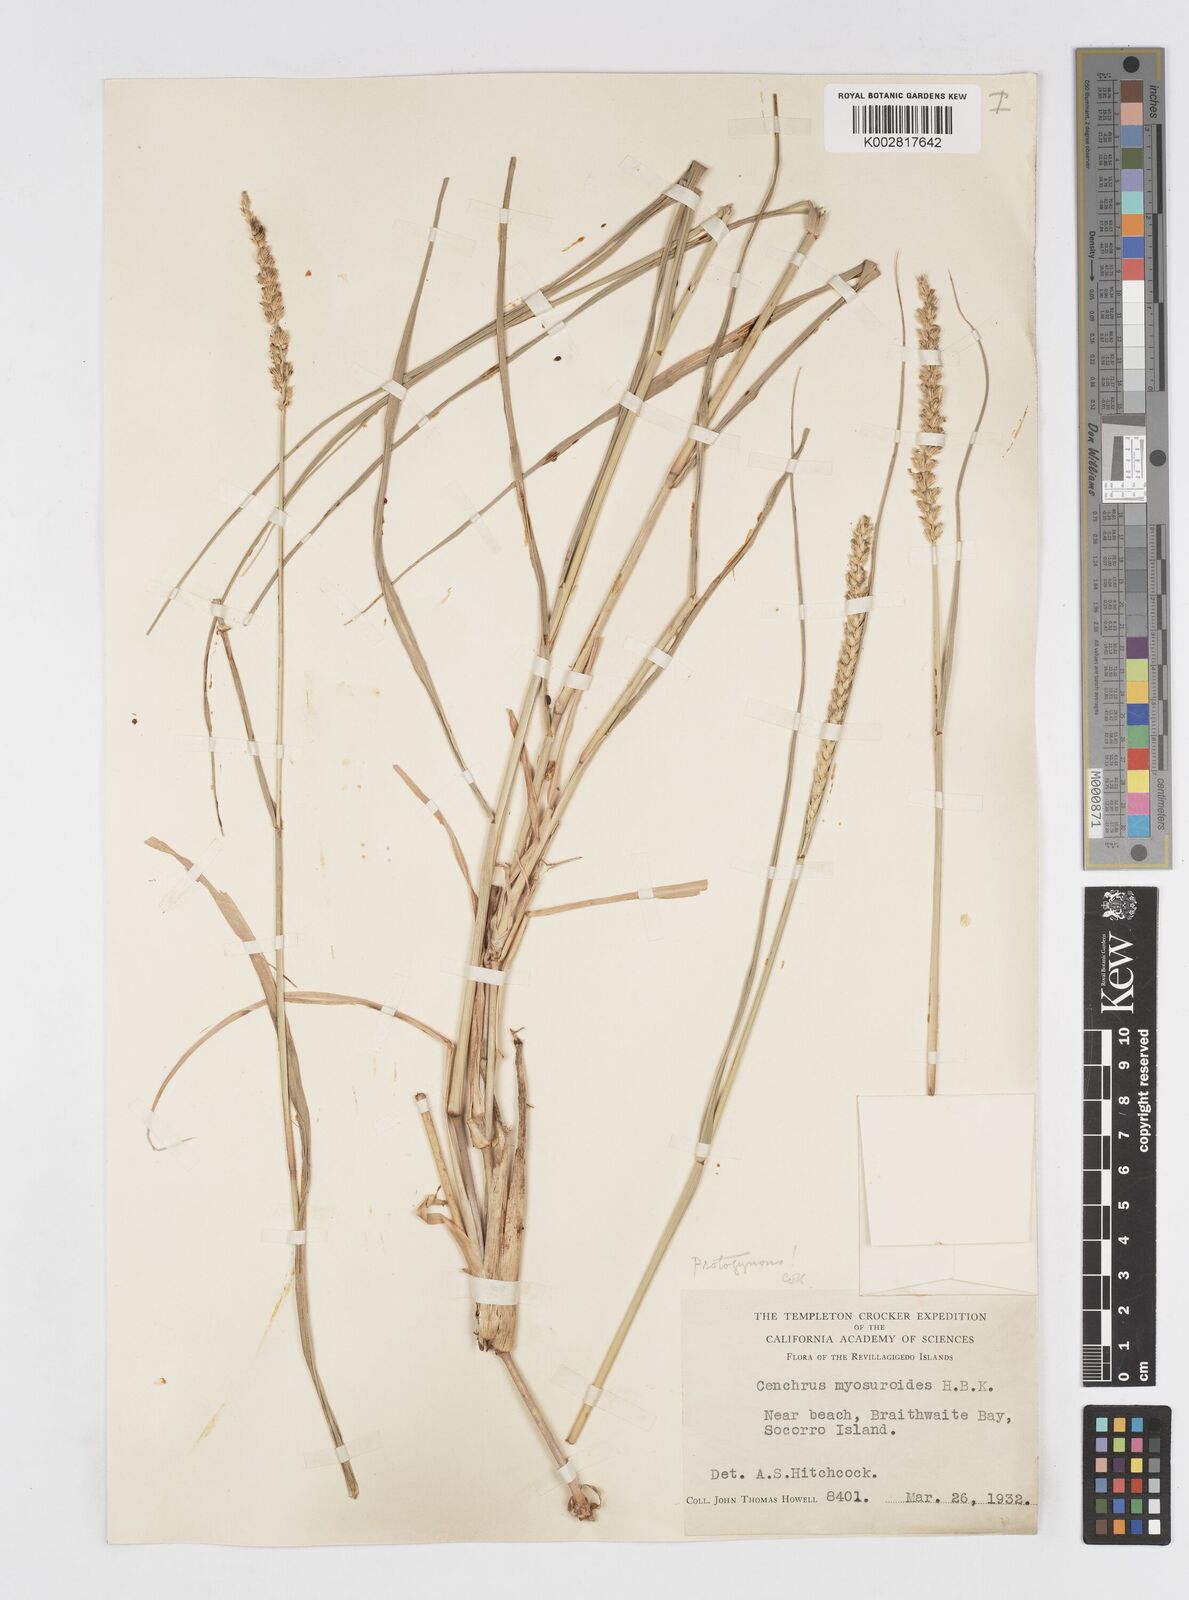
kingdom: Plantae
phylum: Tracheophyta
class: Liliopsida
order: Poales
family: Poaceae
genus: Cenchrus
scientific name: Cenchrus myosuroides
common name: Big sandbur
